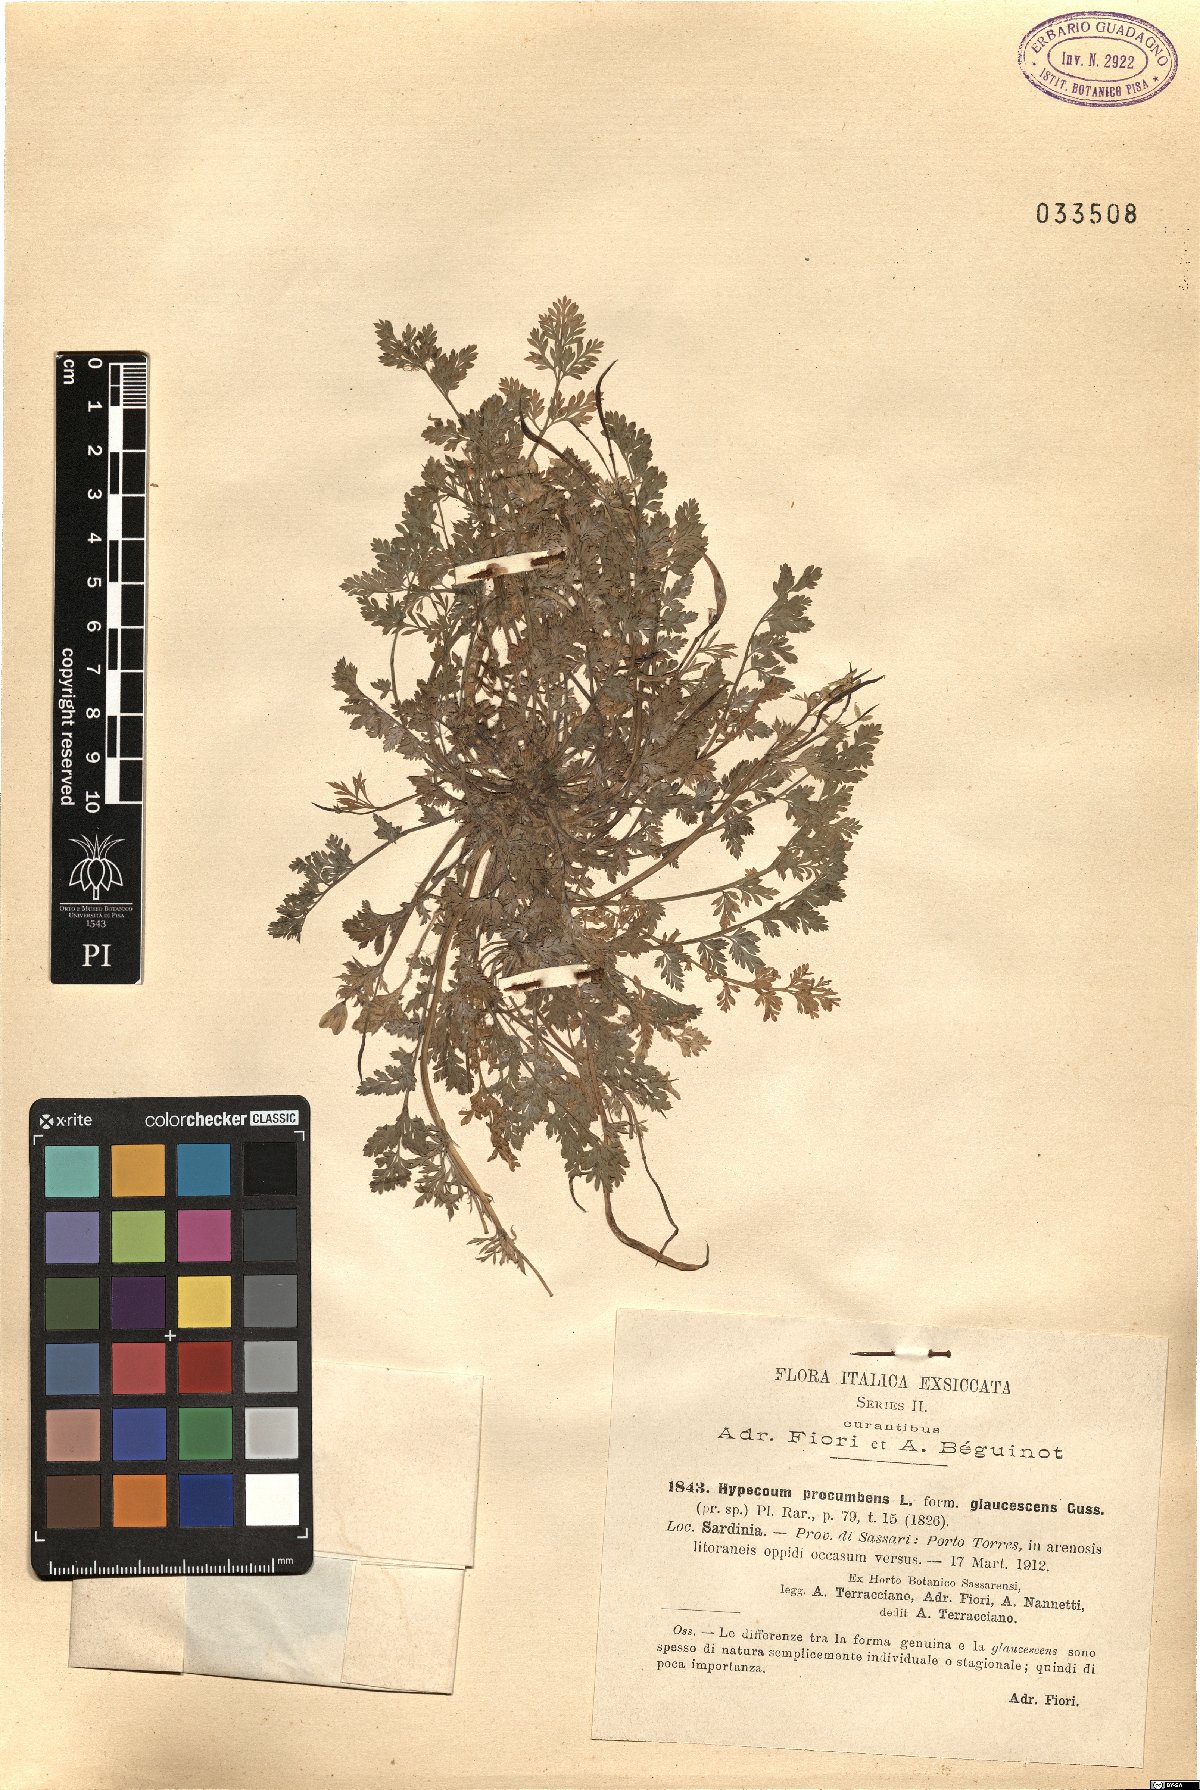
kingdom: Plantae
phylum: Tracheophyta
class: Magnoliopsida
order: Ranunculales
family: Papaveraceae
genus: Hypecoum
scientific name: Hypecoum procumbens
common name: Procumbent hypecoum
